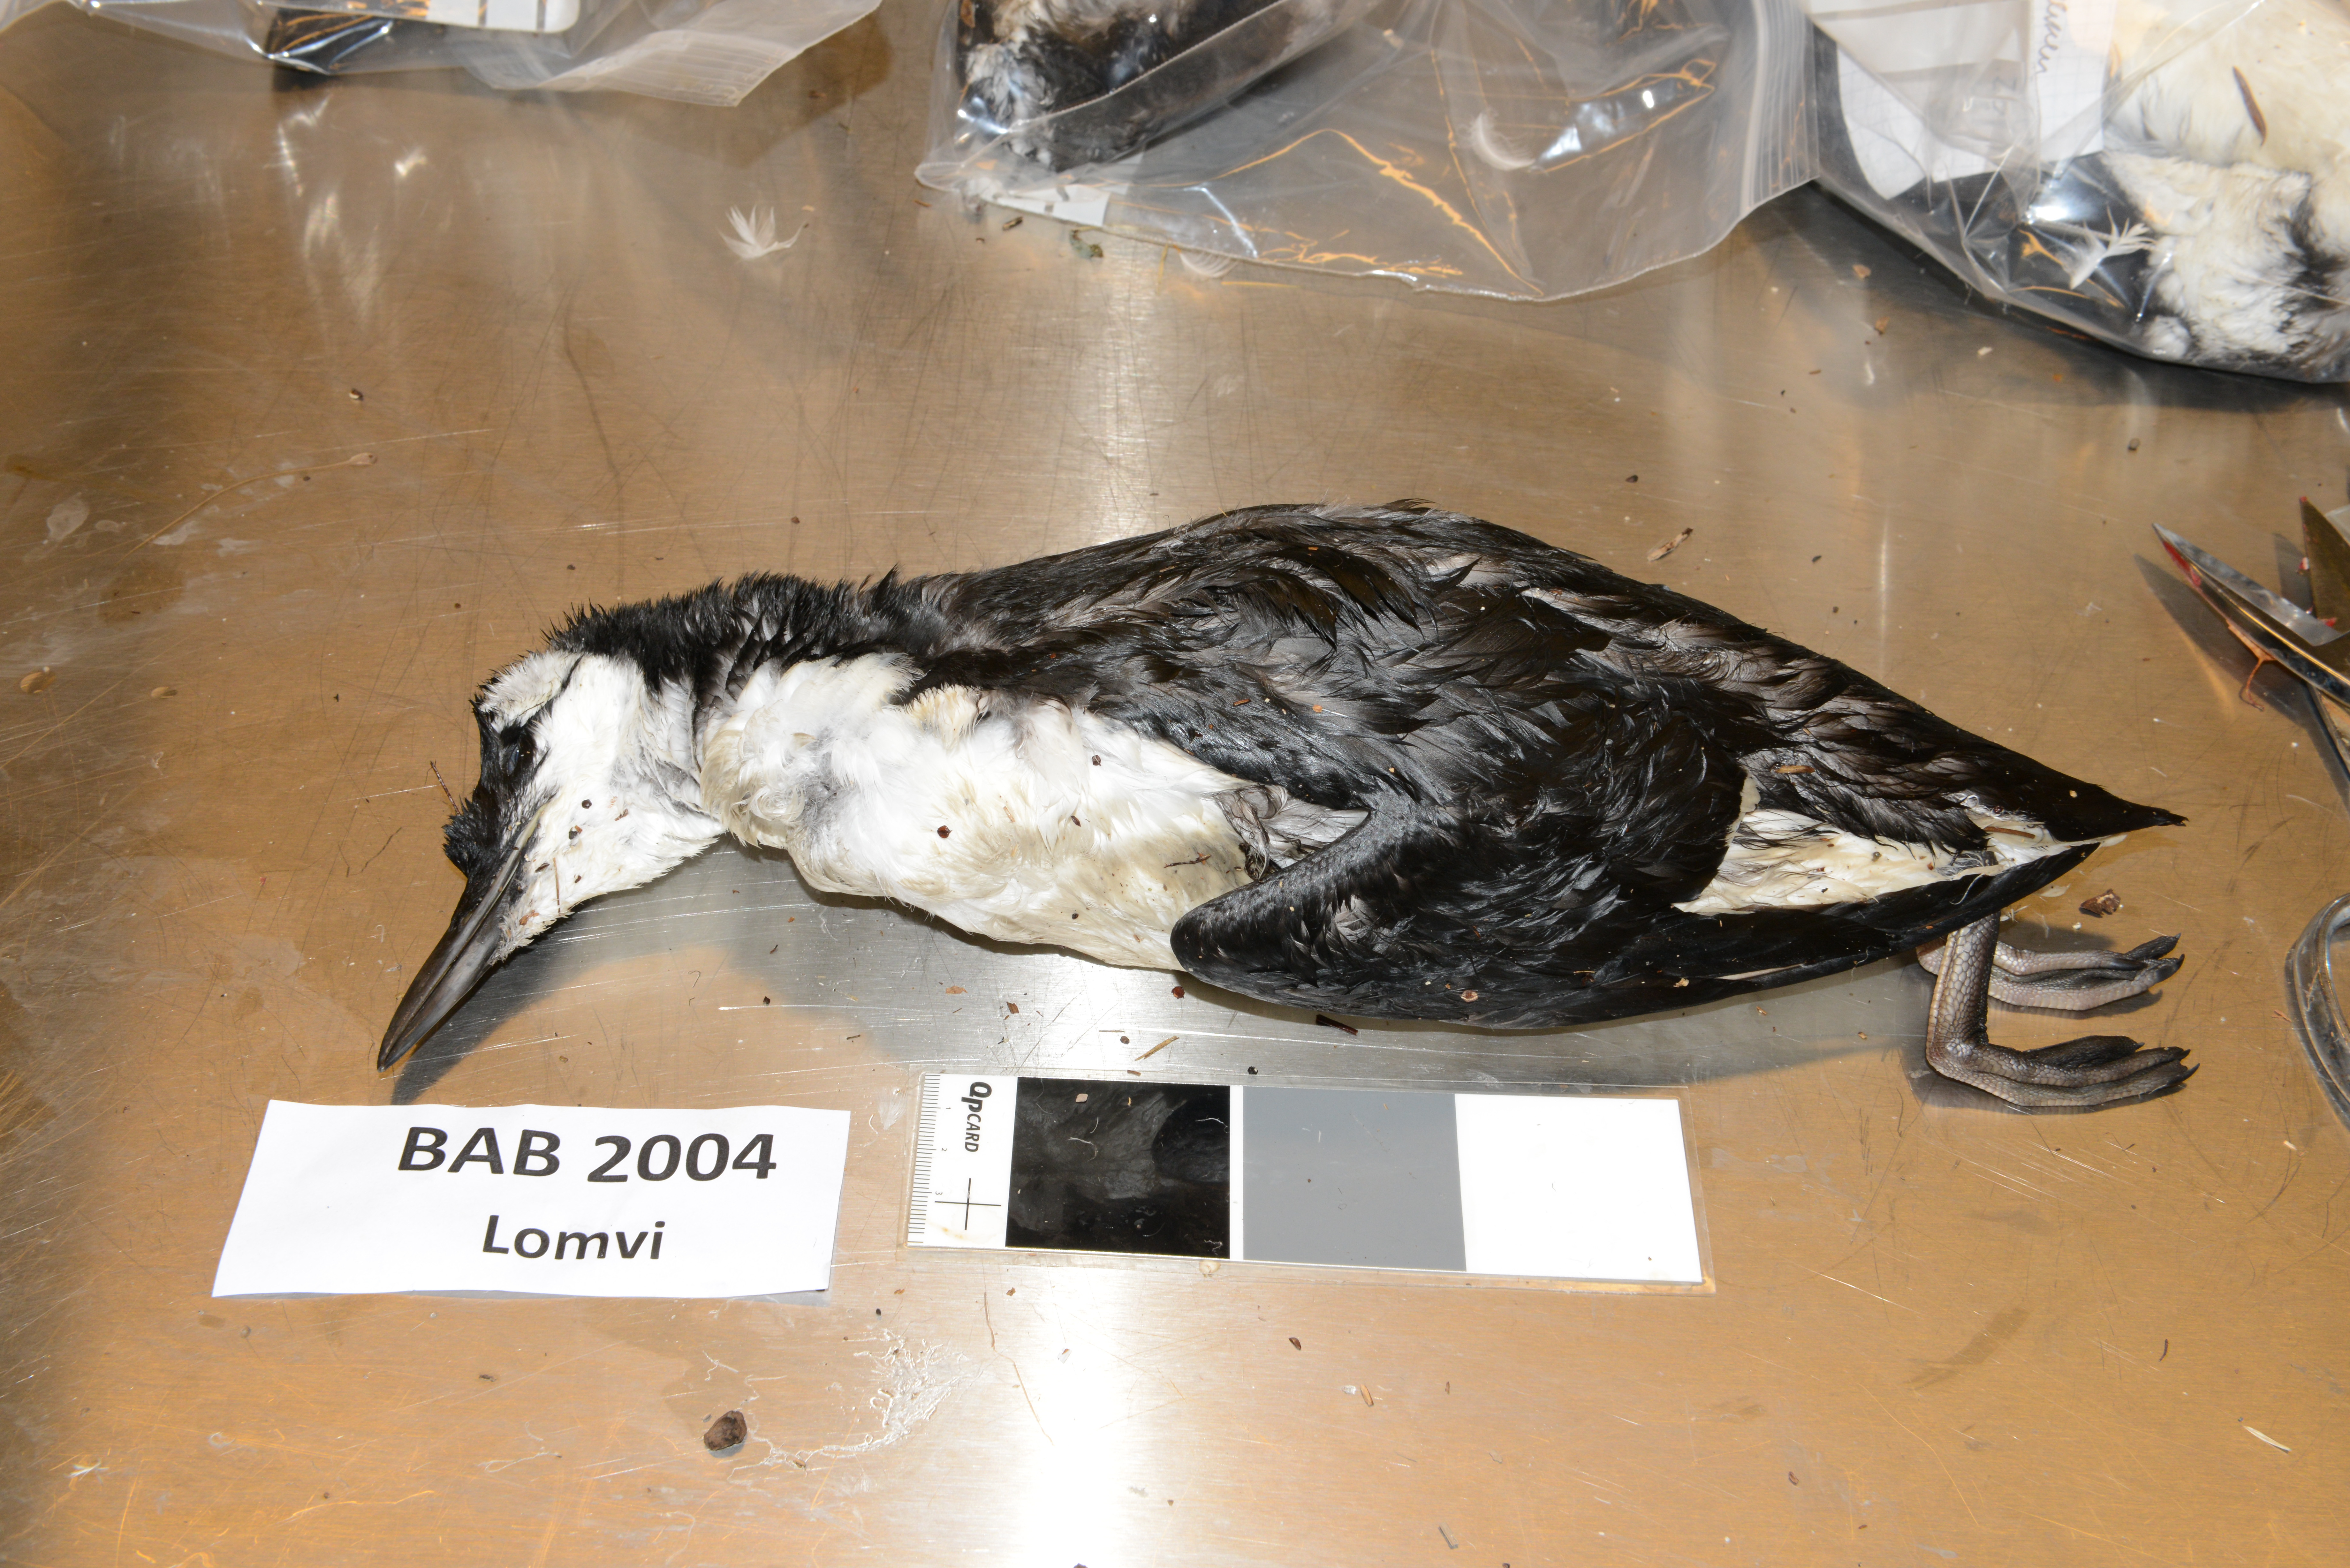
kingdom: Animalia
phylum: Chordata
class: Aves
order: Charadriiformes
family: Alcidae
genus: Uria
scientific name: Uria aalge
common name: Common murre
